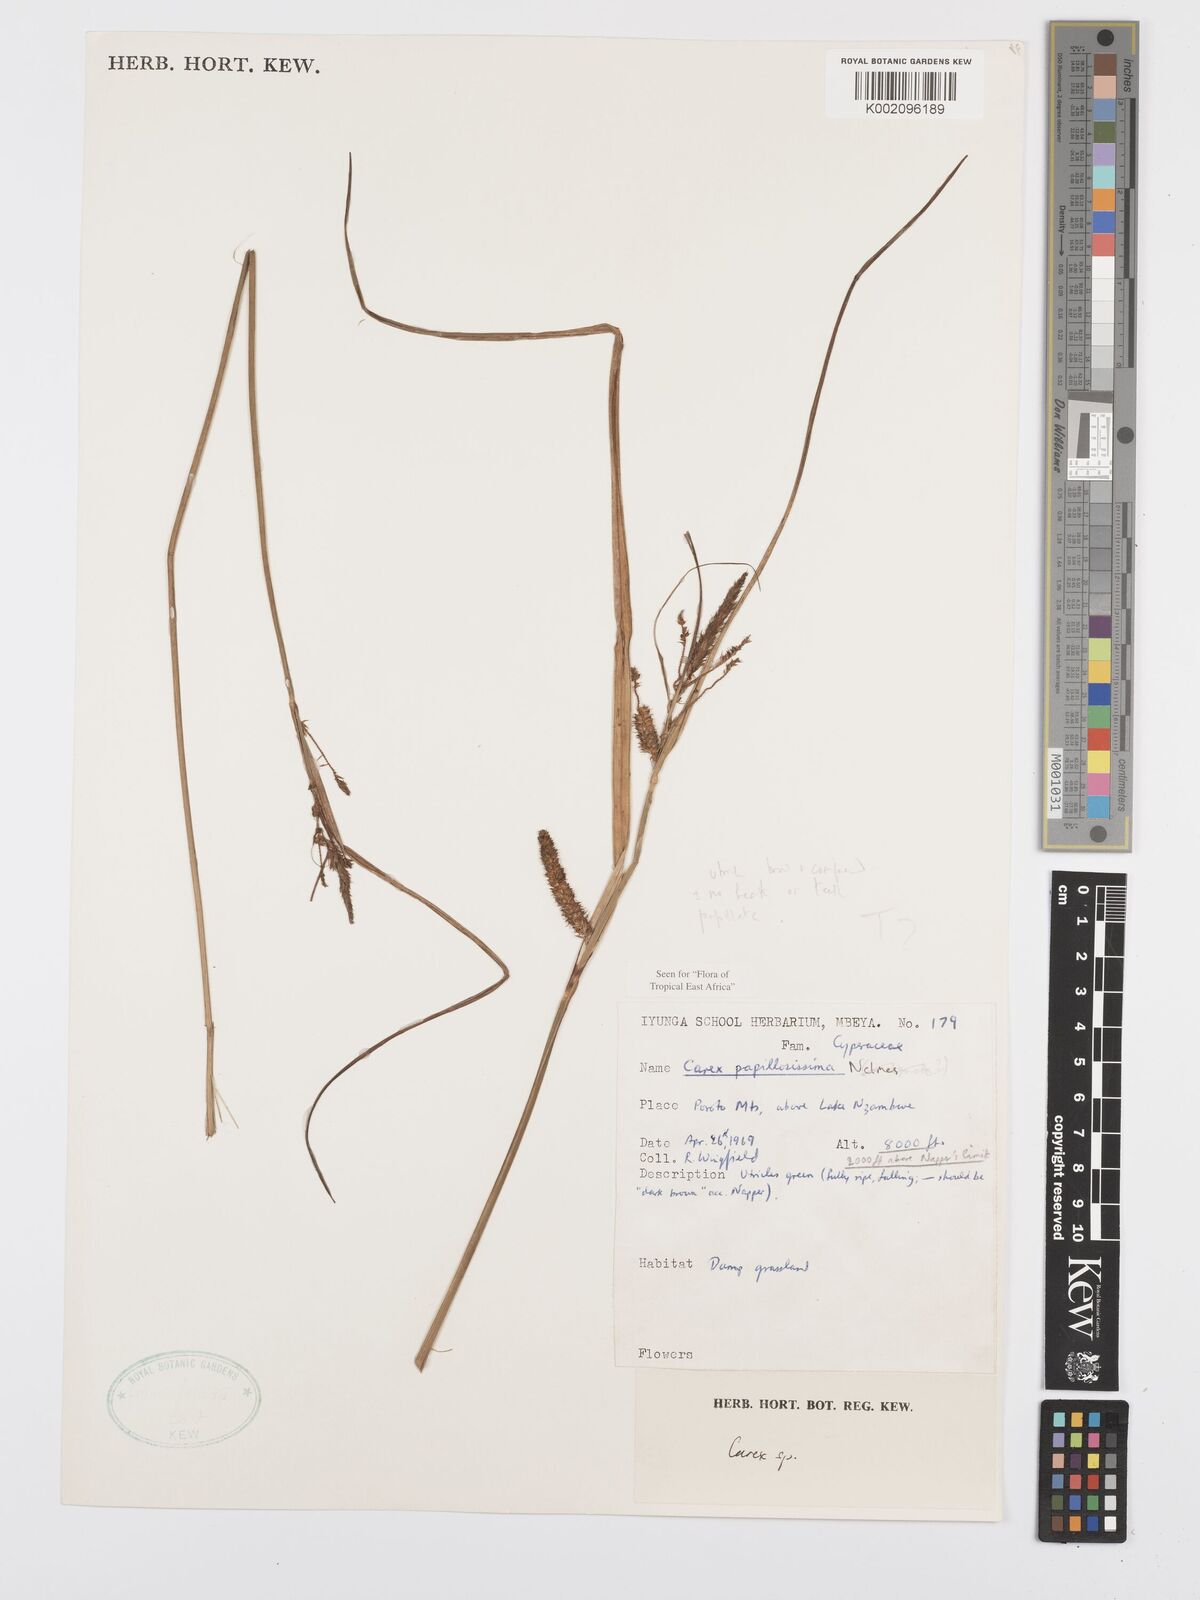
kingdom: Plantae
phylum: Tracheophyta
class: Liliopsida
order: Poales
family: Cyperaceae
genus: Carex
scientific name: Carex papillosissima
